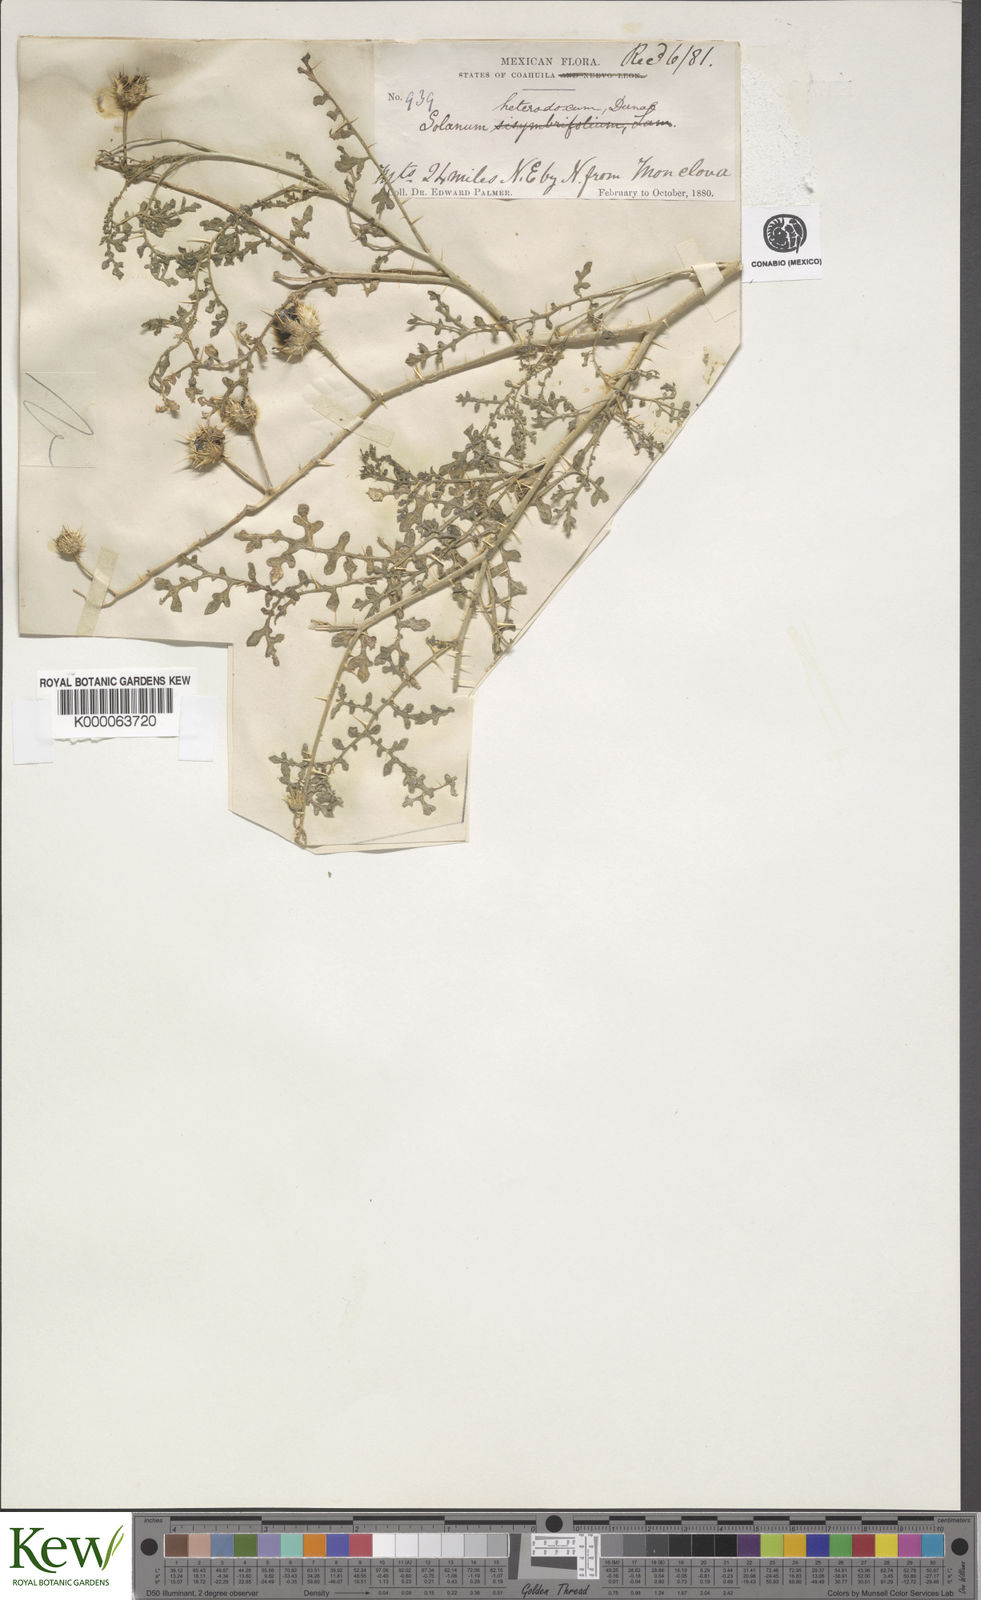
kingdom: Plantae
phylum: Tracheophyta
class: Magnoliopsida
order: Solanales
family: Solanaceae
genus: Solanum
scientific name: Solanum heterodoxum
